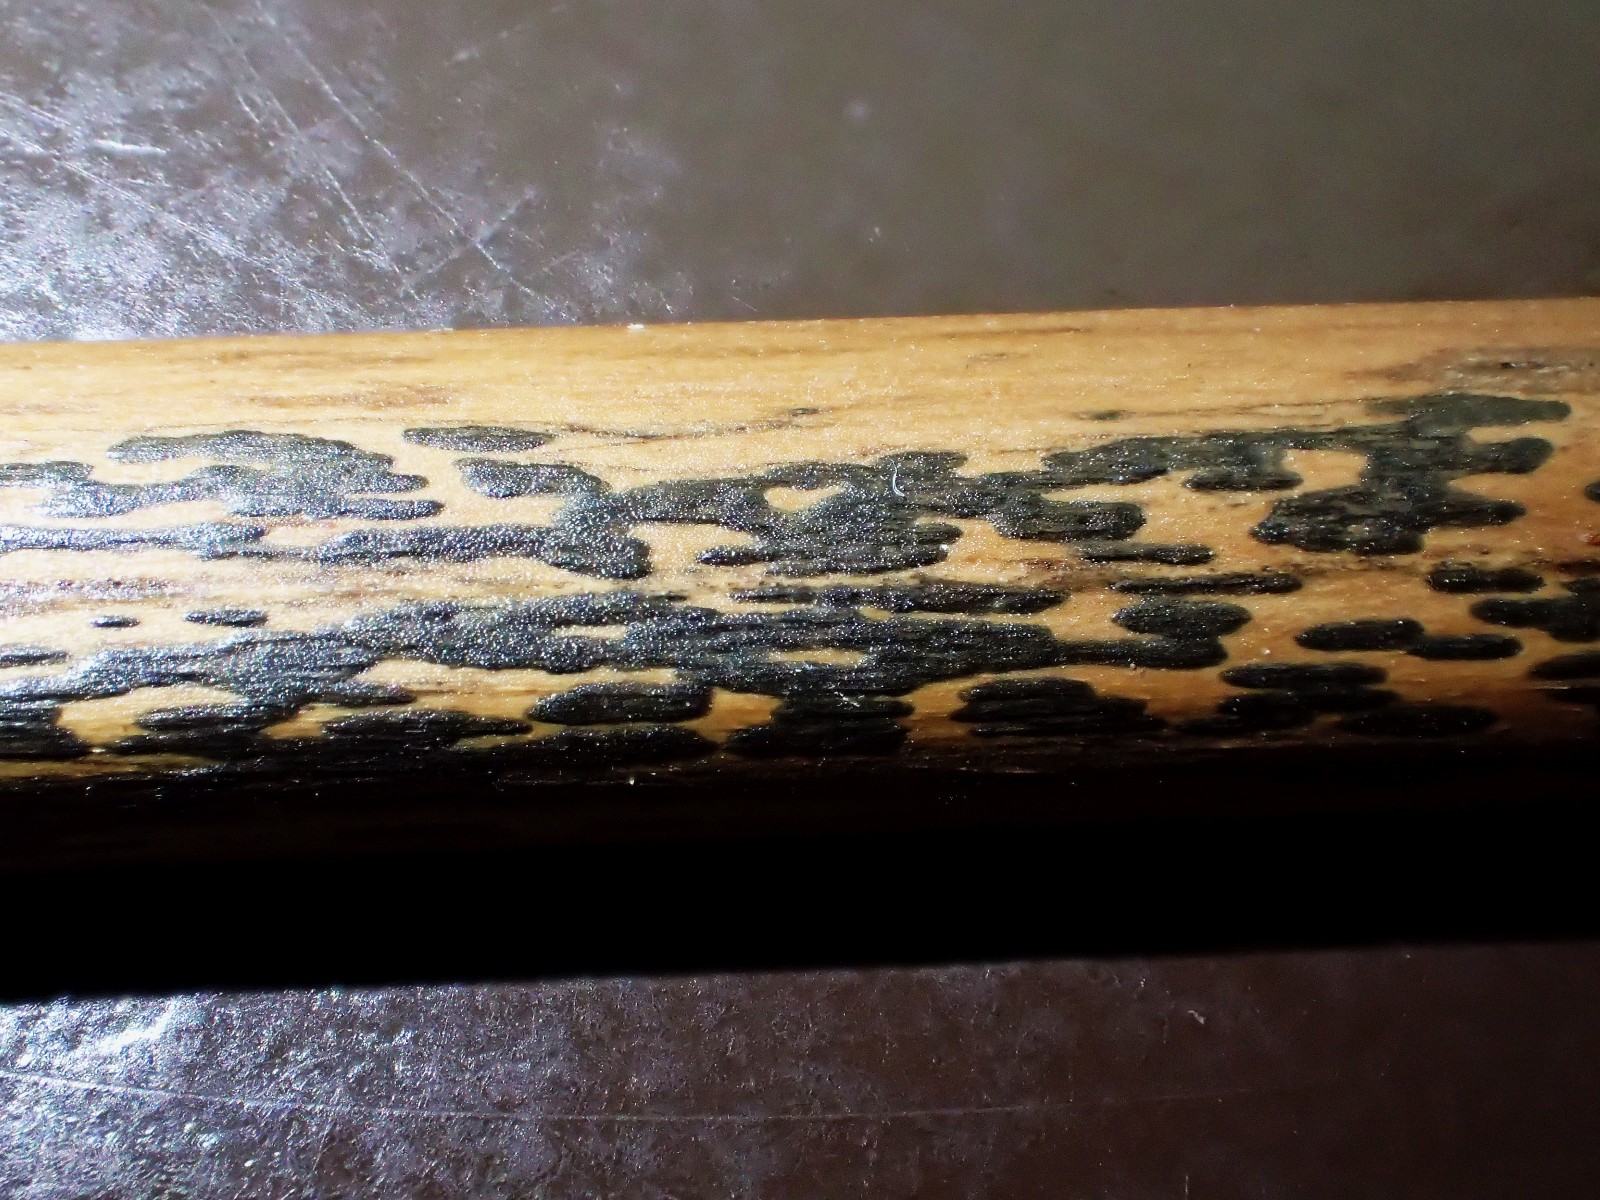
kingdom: Fungi
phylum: Ascomycota
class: Dothideomycetes
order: Pleosporales
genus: Rhopographus
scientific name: Rhopographus filicinus
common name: Bracken map
